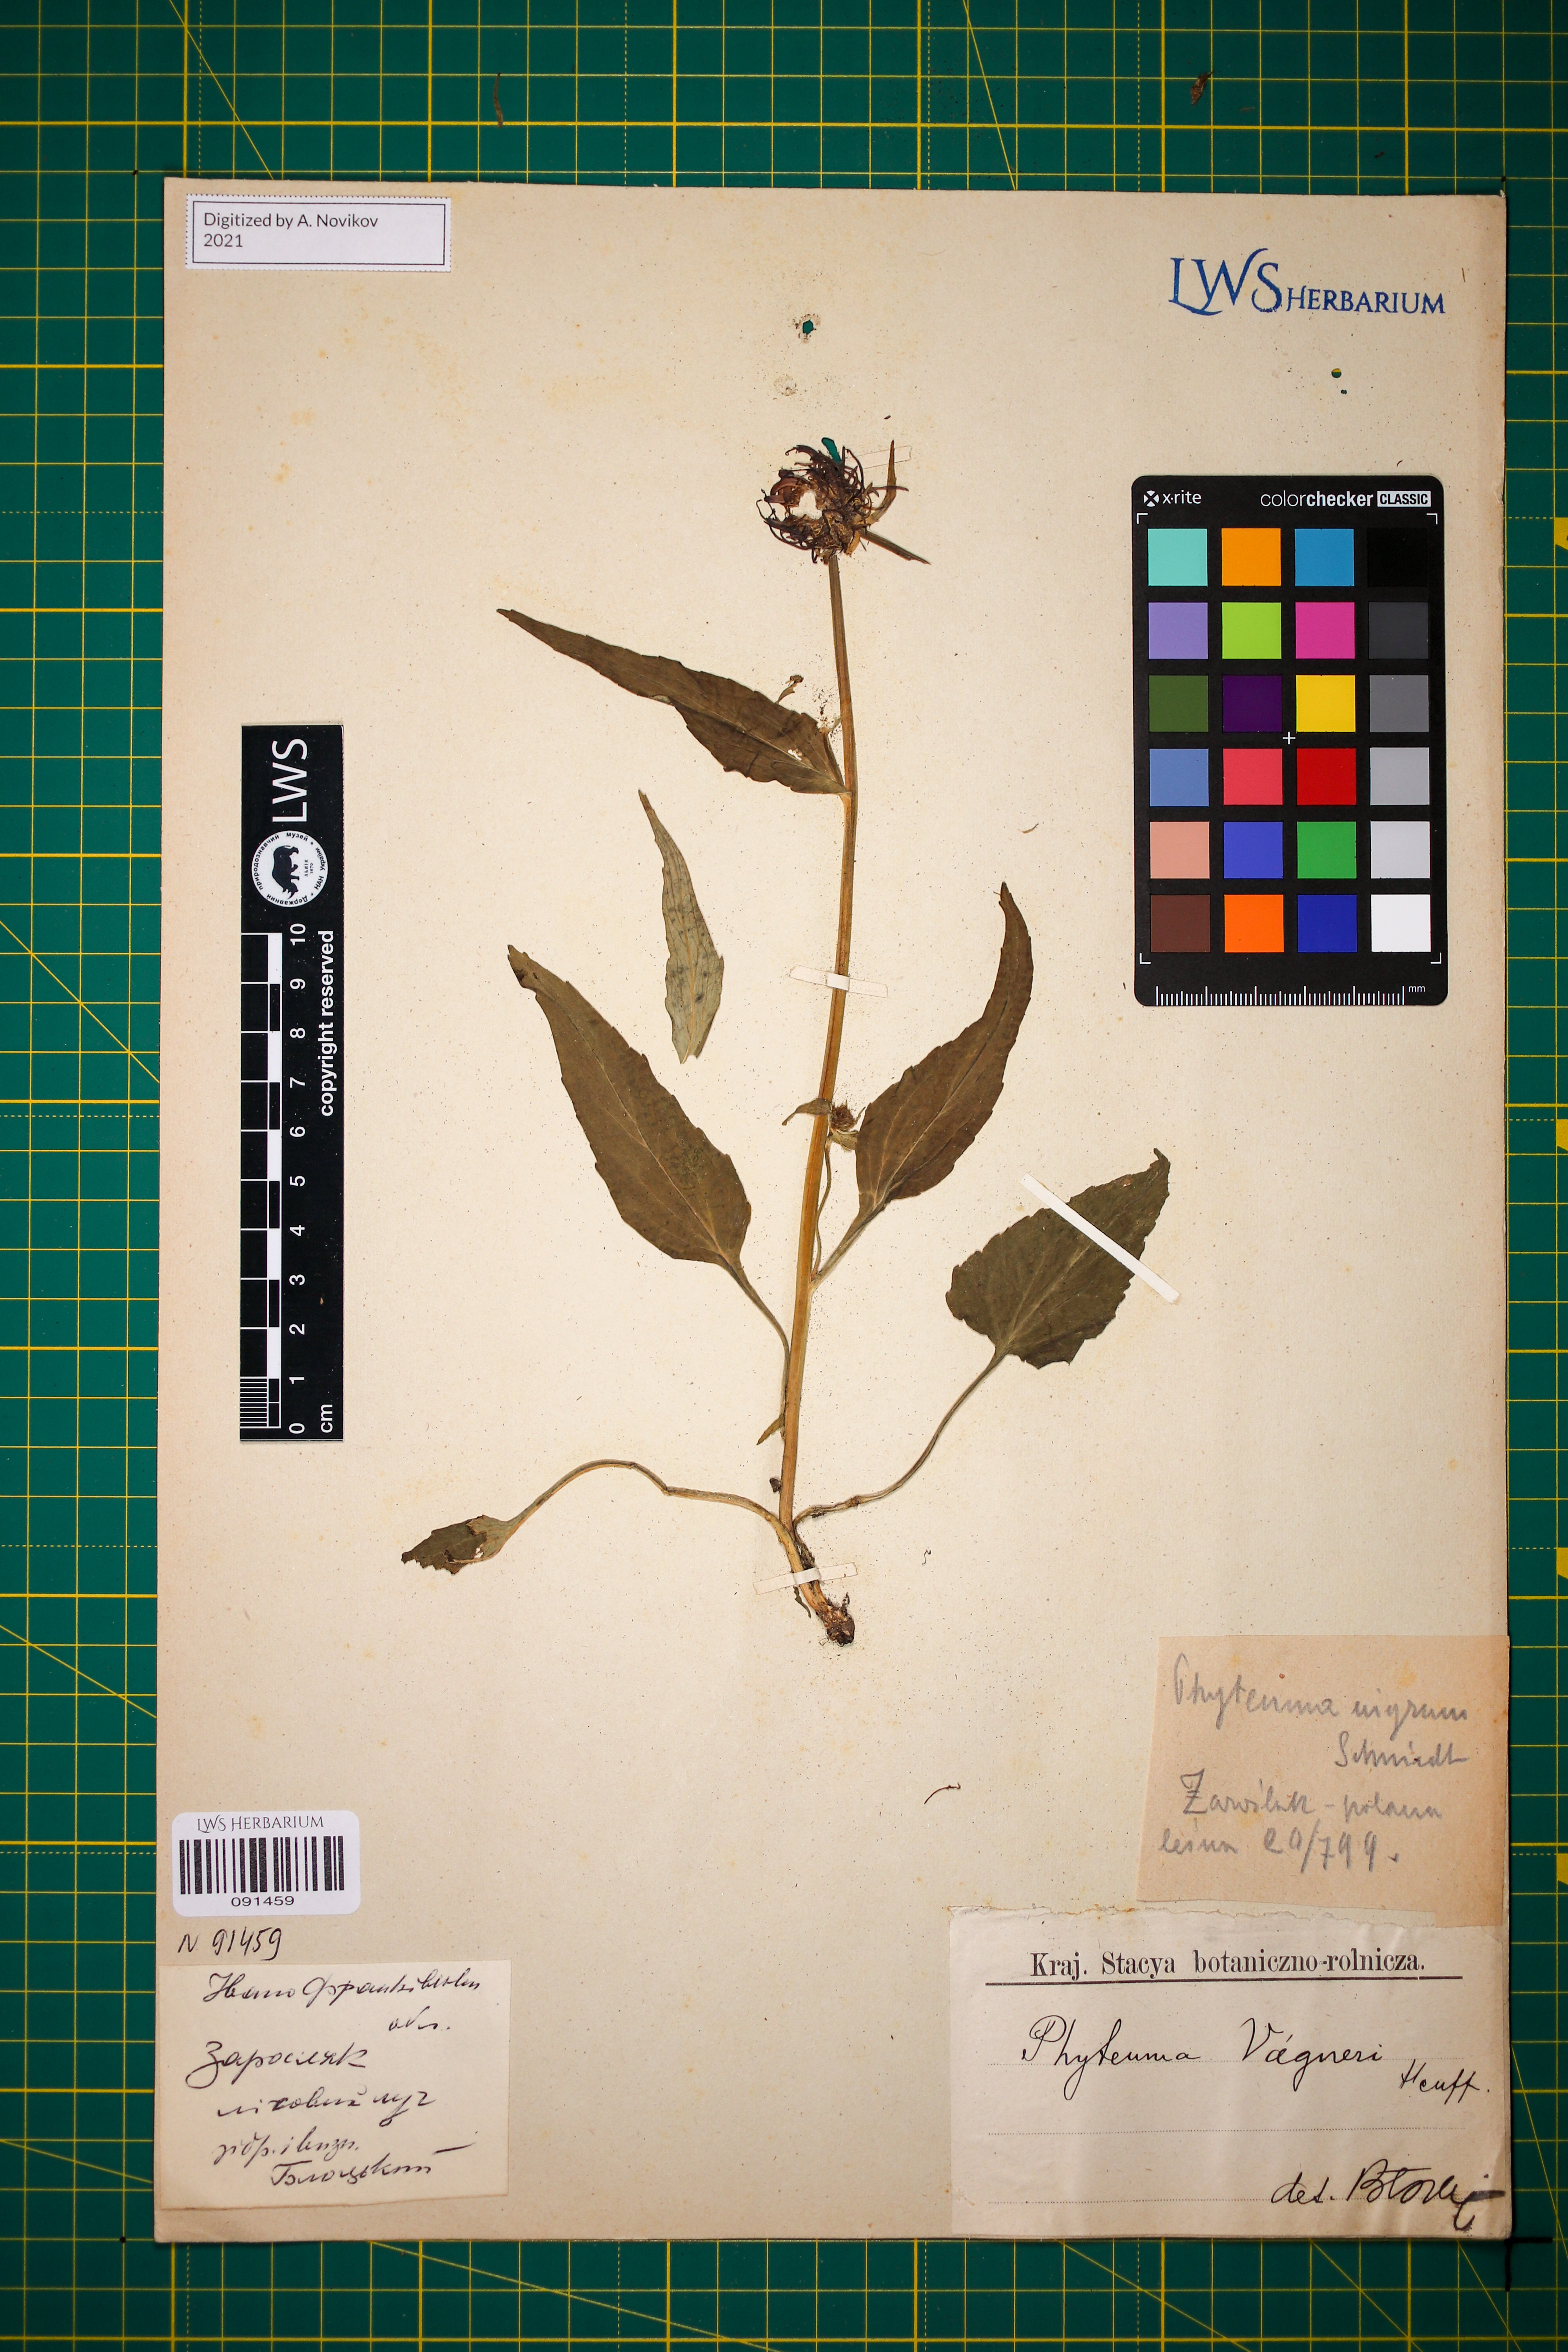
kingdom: Plantae
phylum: Tracheophyta
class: Magnoliopsida
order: Asterales
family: Campanulaceae
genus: Phyteuma
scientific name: Phyteuma vagneri
